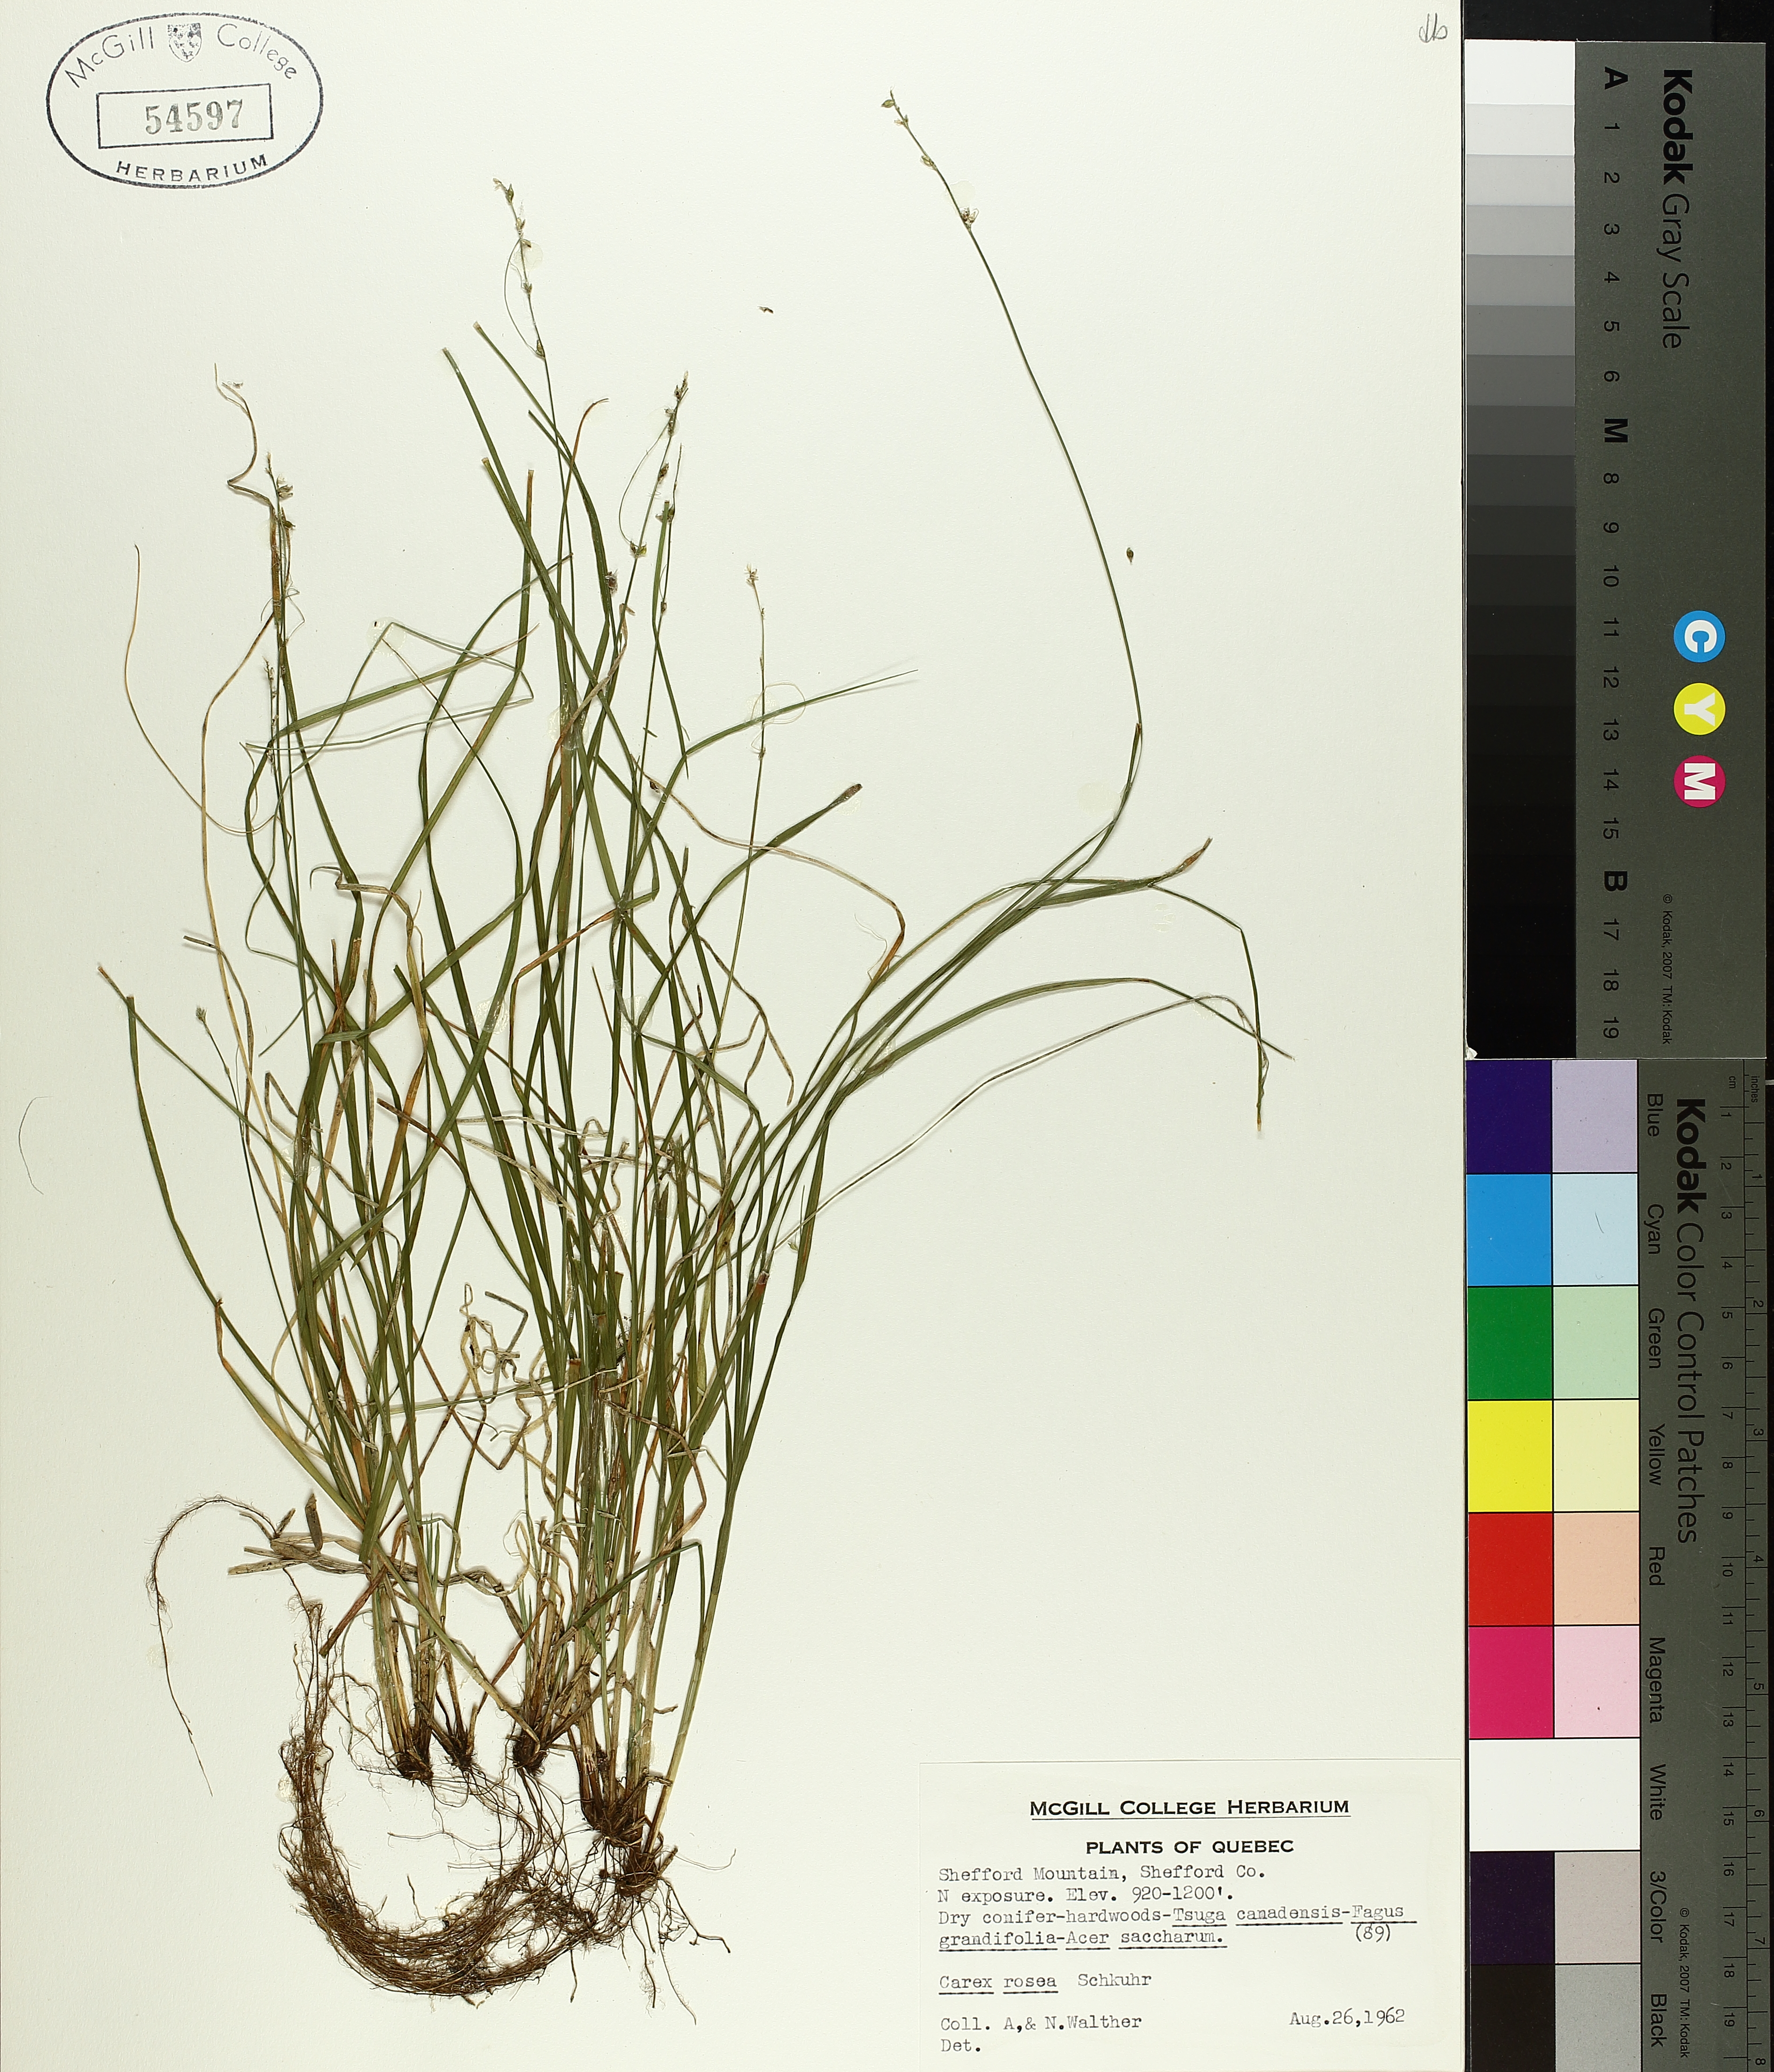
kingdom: Plantae
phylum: Tracheophyta
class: Liliopsida
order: Poales
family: Cyperaceae
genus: Carex
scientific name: Carex rosea
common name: Curly-styled wood sedge
